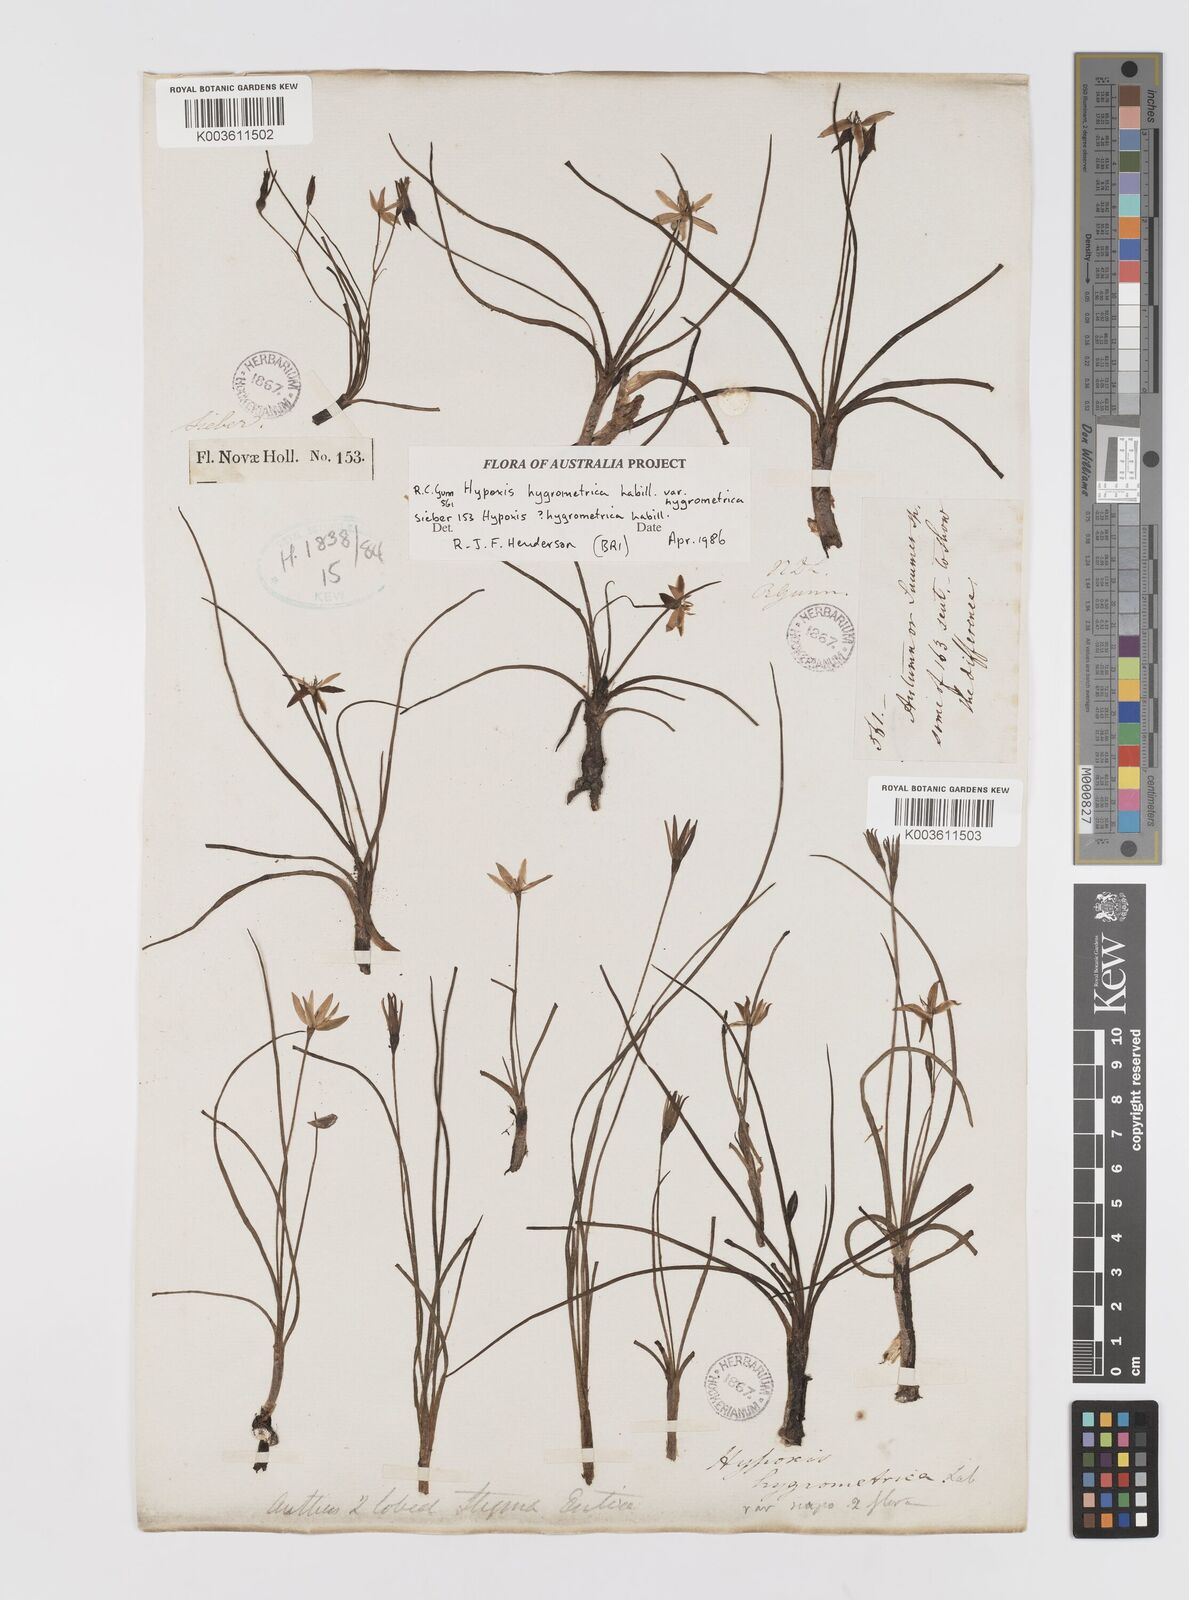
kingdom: Plantae
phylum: Tracheophyta
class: Liliopsida
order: Asparagales
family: Hypoxidaceae
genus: Hypoxis
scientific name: Hypoxis hygrometrica
